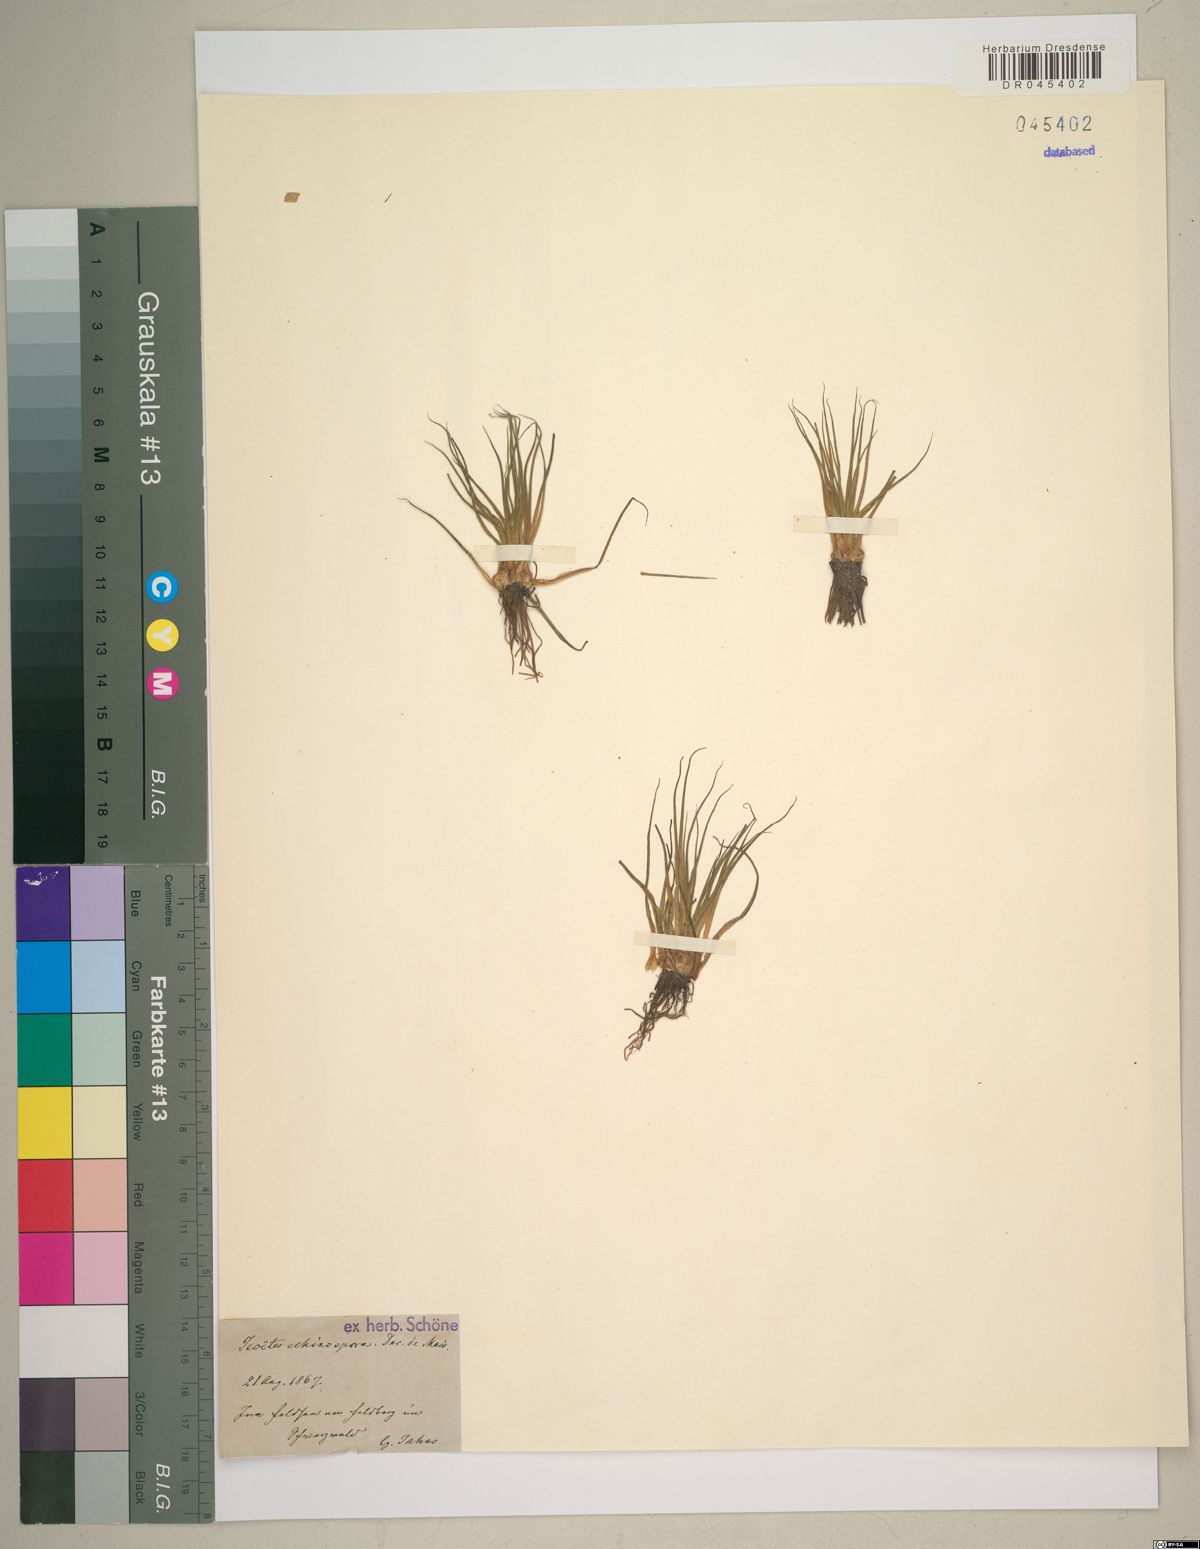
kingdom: Plantae
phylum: Tracheophyta
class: Lycopodiopsida
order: Isoetales
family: Isoetaceae
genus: Isoetes
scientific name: Isoetes echinospora
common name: Spring quillwort
